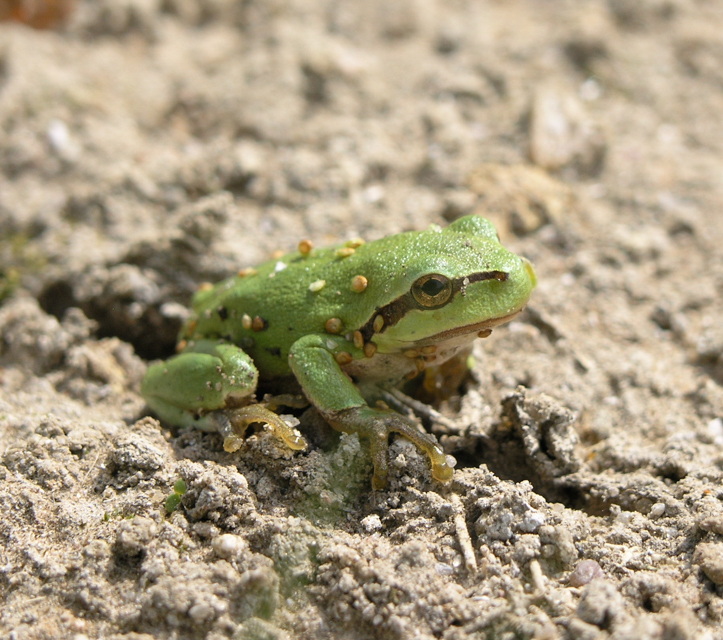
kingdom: Animalia
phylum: Chordata
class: Amphibia
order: Anura
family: Hylidae
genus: Hyla
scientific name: Hyla arborea
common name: Common tree frog
